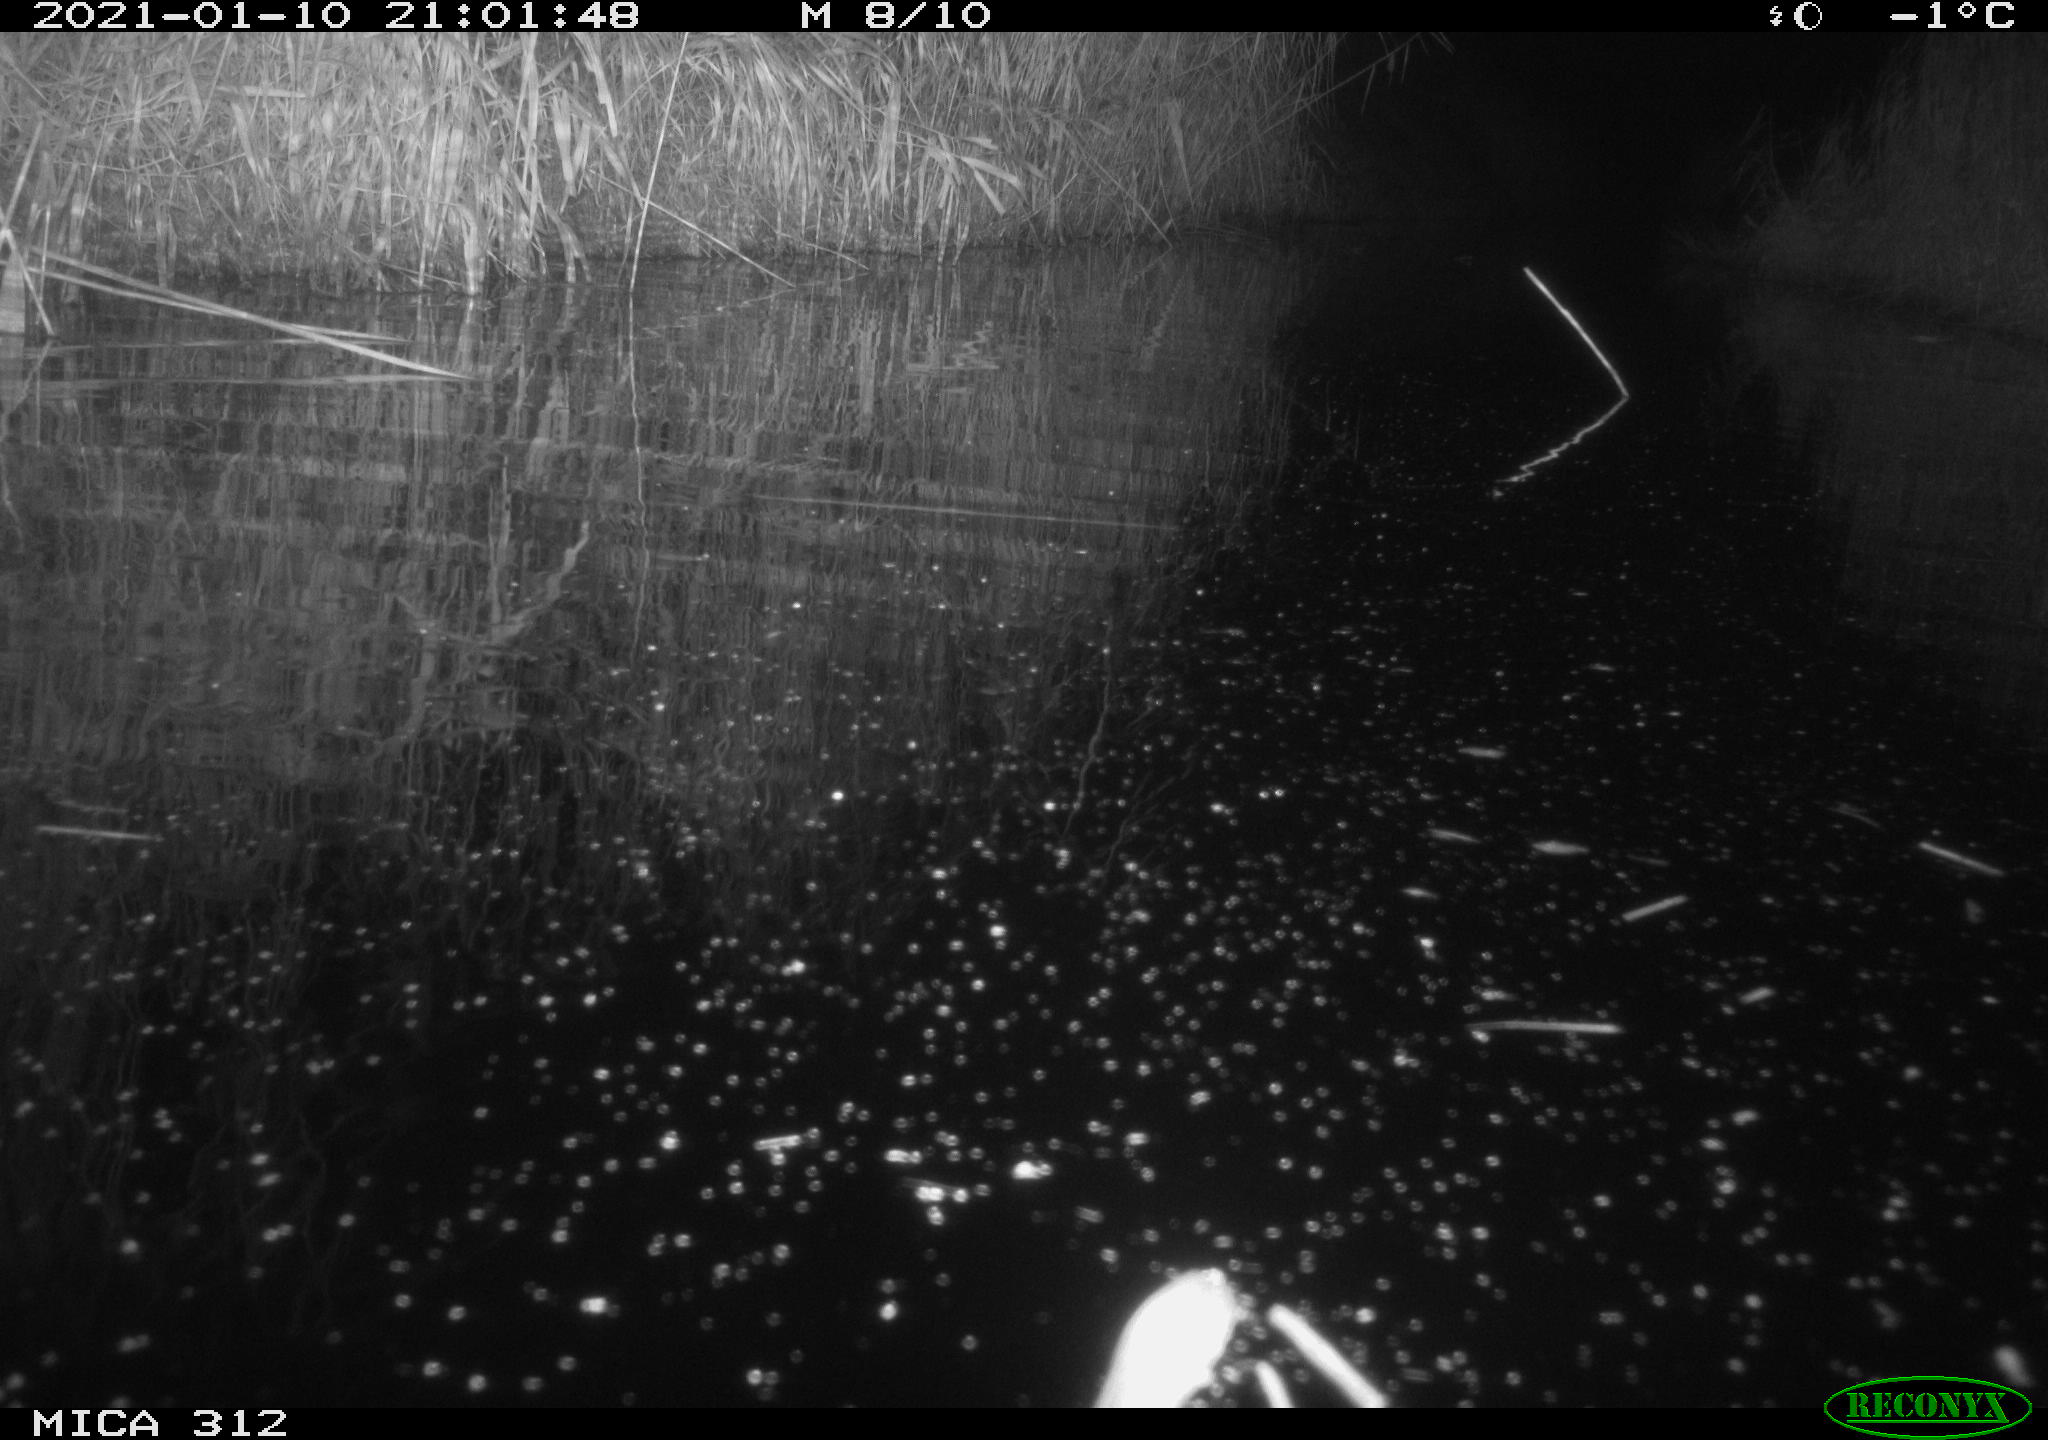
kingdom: Animalia
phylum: Chordata
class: Mammalia
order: Rodentia
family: Cricetidae
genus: Ondatra
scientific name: Ondatra zibethicus
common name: Muskrat
